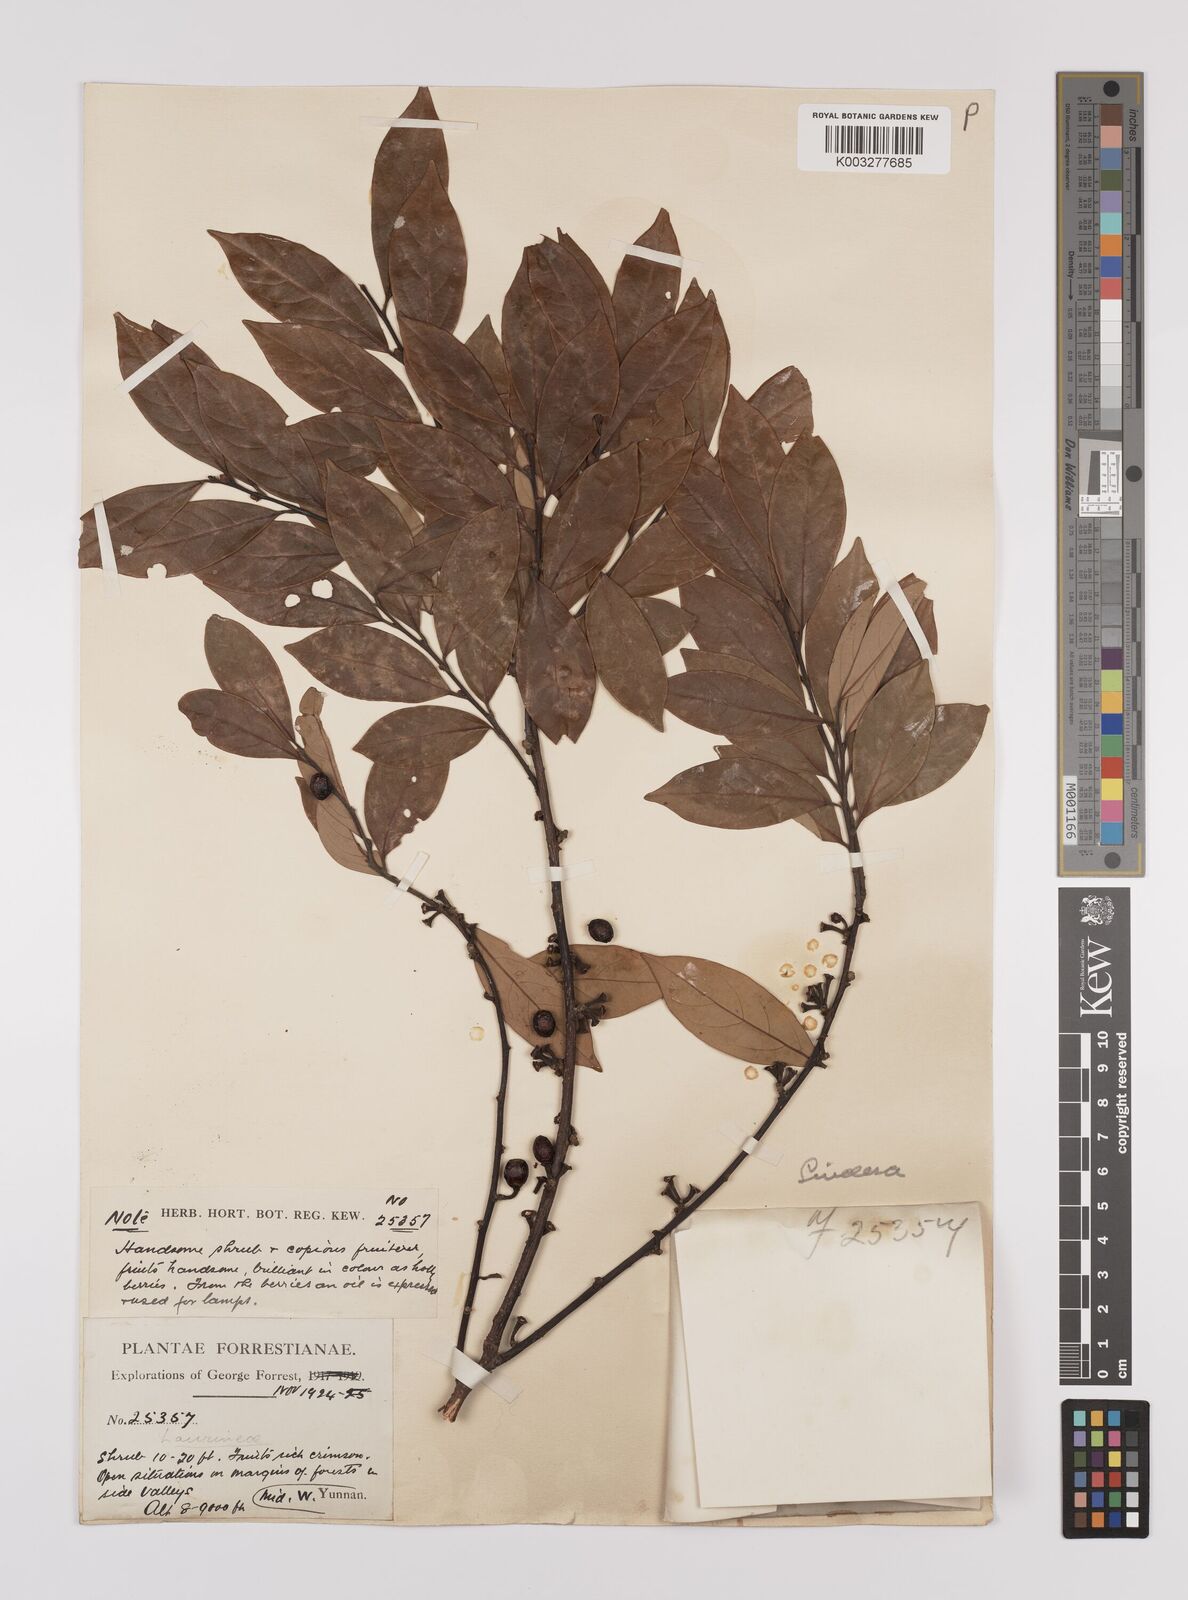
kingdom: Plantae
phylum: Tracheophyta
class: Magnoliopsida
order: Laurales
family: Lauraceae
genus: Litsea
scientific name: Litsea rotundifolia
